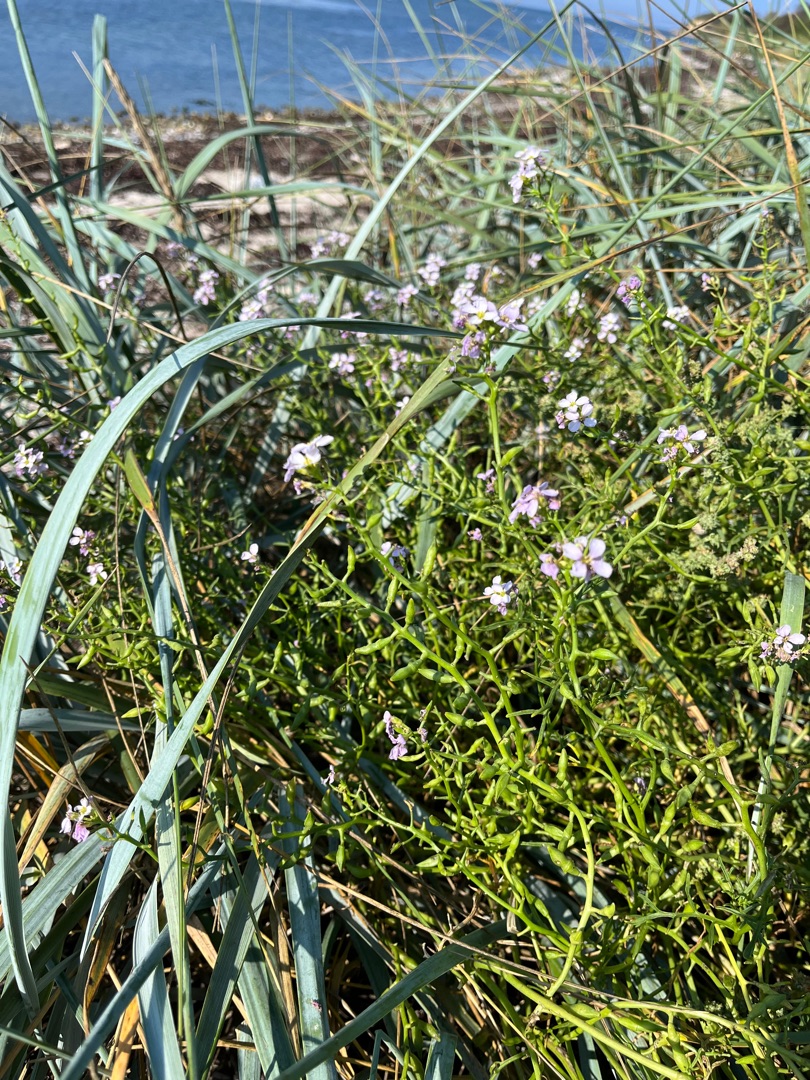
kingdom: Plantae
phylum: Tracheophyta
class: Magnoliopsida
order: Brassicales
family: Brassicaceae
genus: Cakile
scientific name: Cakile maritima
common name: Østersø-strandsennep
